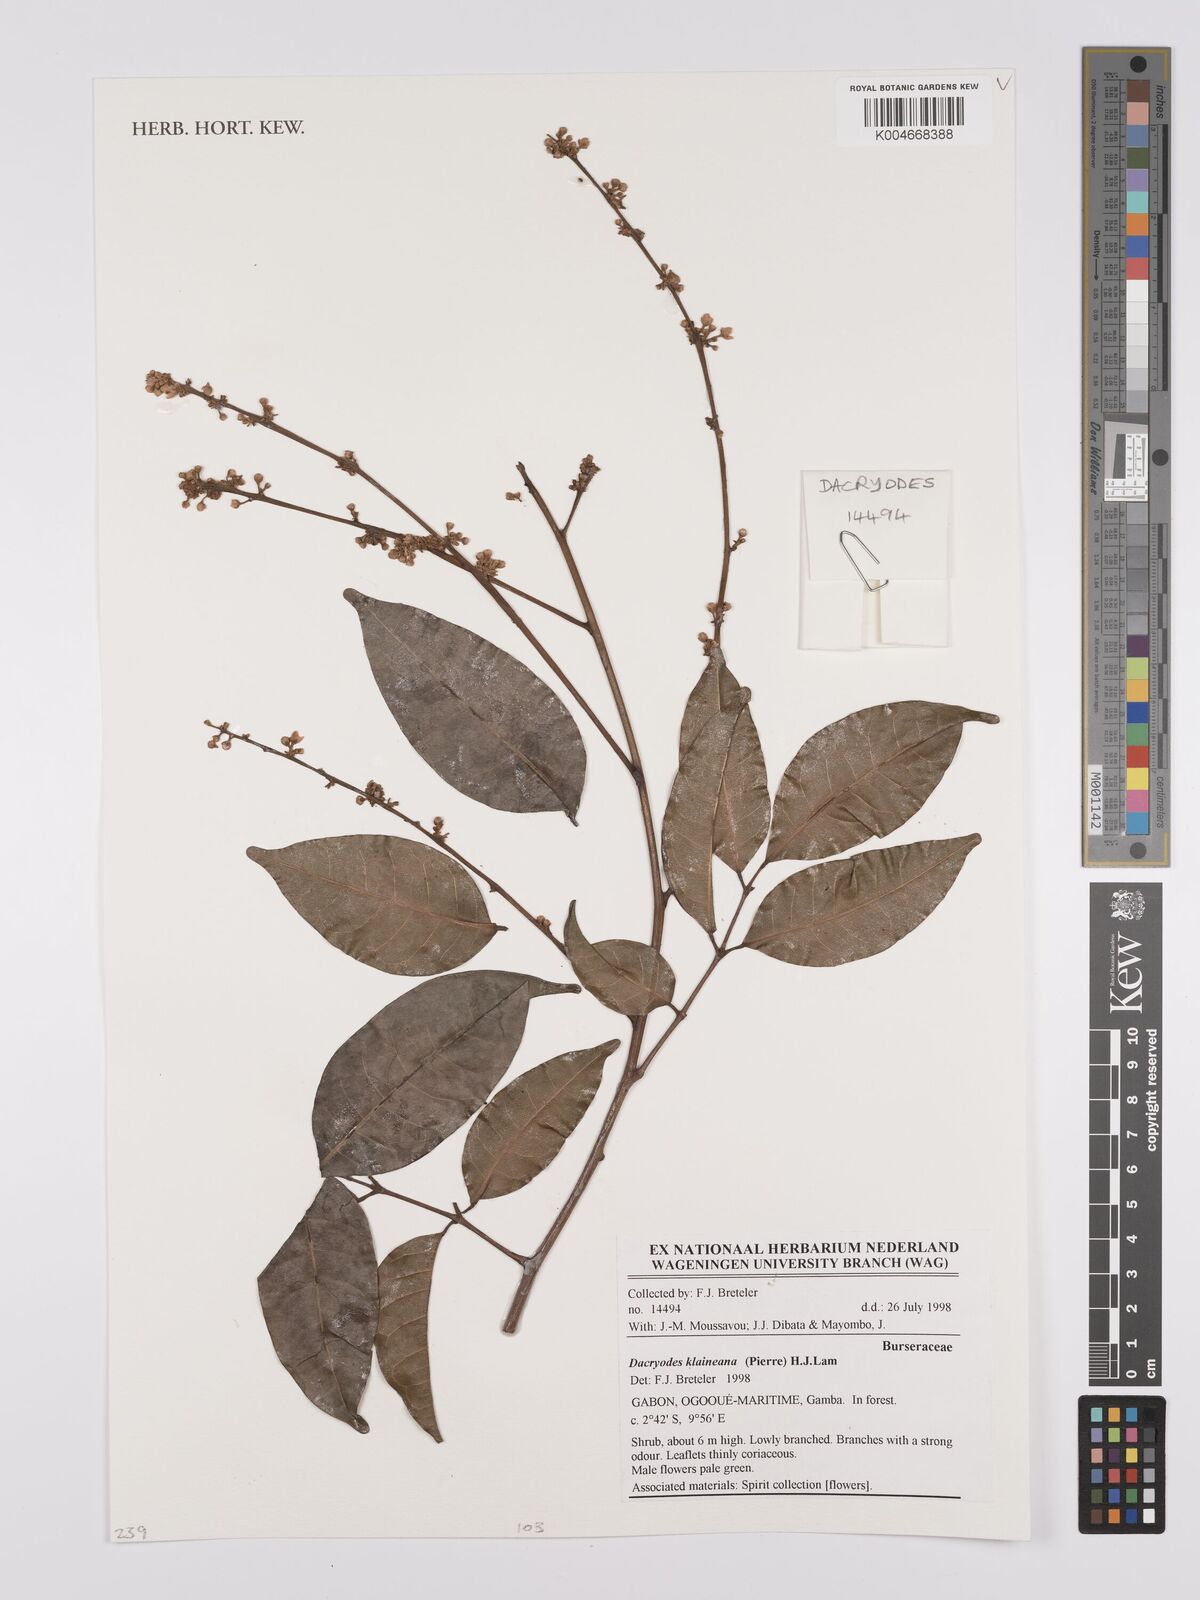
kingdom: Plantae
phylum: Tracheophyta
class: Magnoliopsida
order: Sapindales
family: Burseraceae
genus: Pachylobus
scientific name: Pachylobus klaineana
